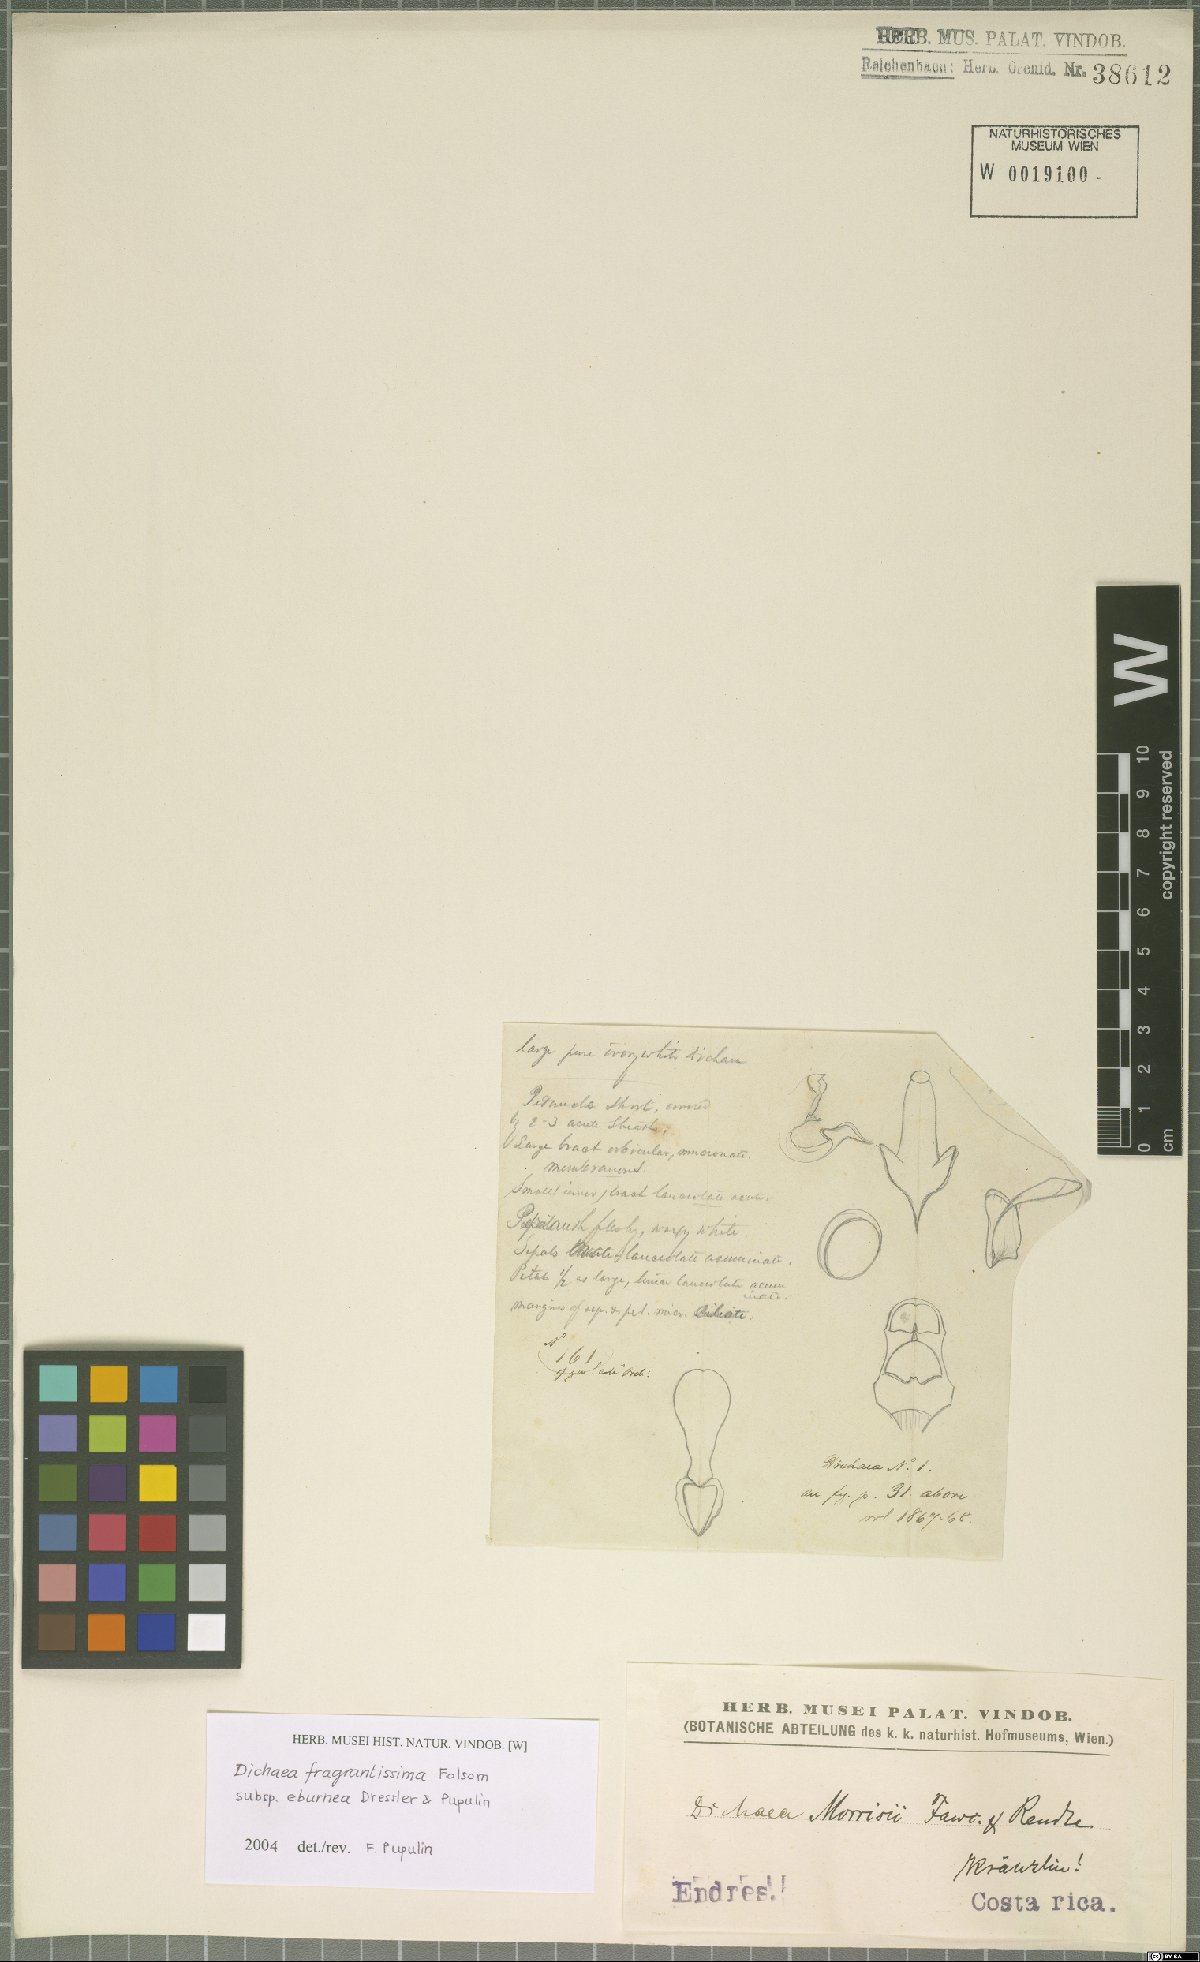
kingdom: Plantae
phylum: Tracheophyta
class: Liliopsida
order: Asparagales
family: Orchidaceae
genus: Dichaea
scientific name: Dichaea eburnea
